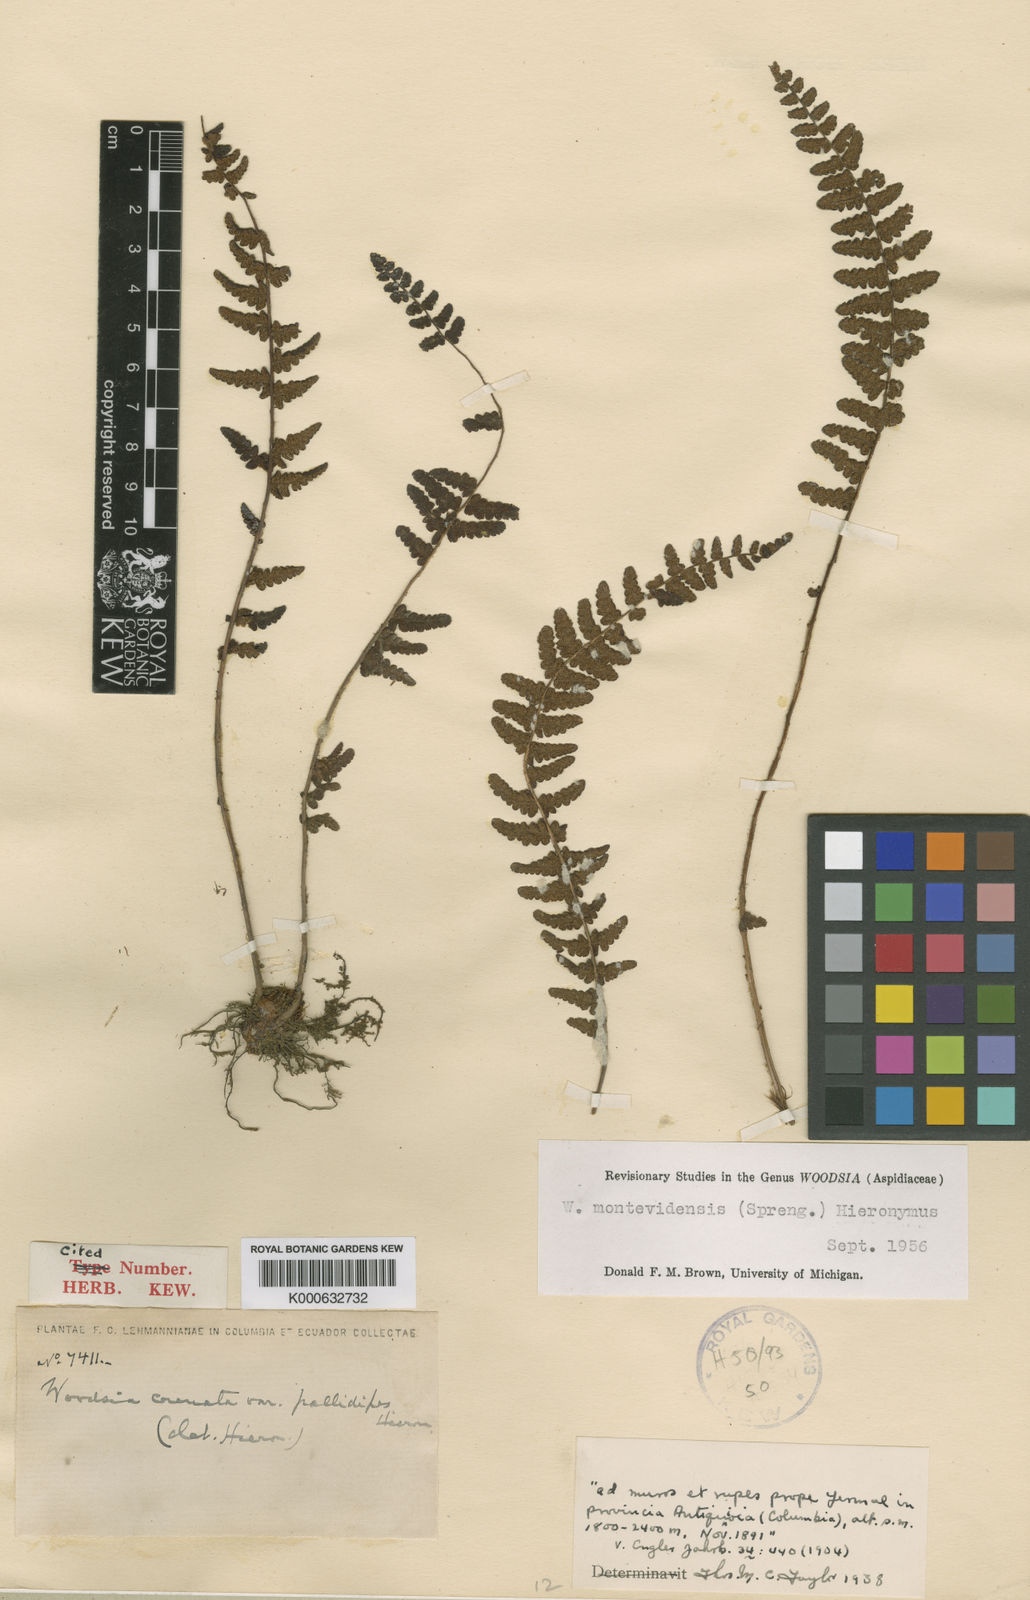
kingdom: Plantae
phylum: Tracheophyta
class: Polypodiopsida
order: Polypodiales
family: Woodsiaceae
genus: Physematium
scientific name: Physematium montevidense
